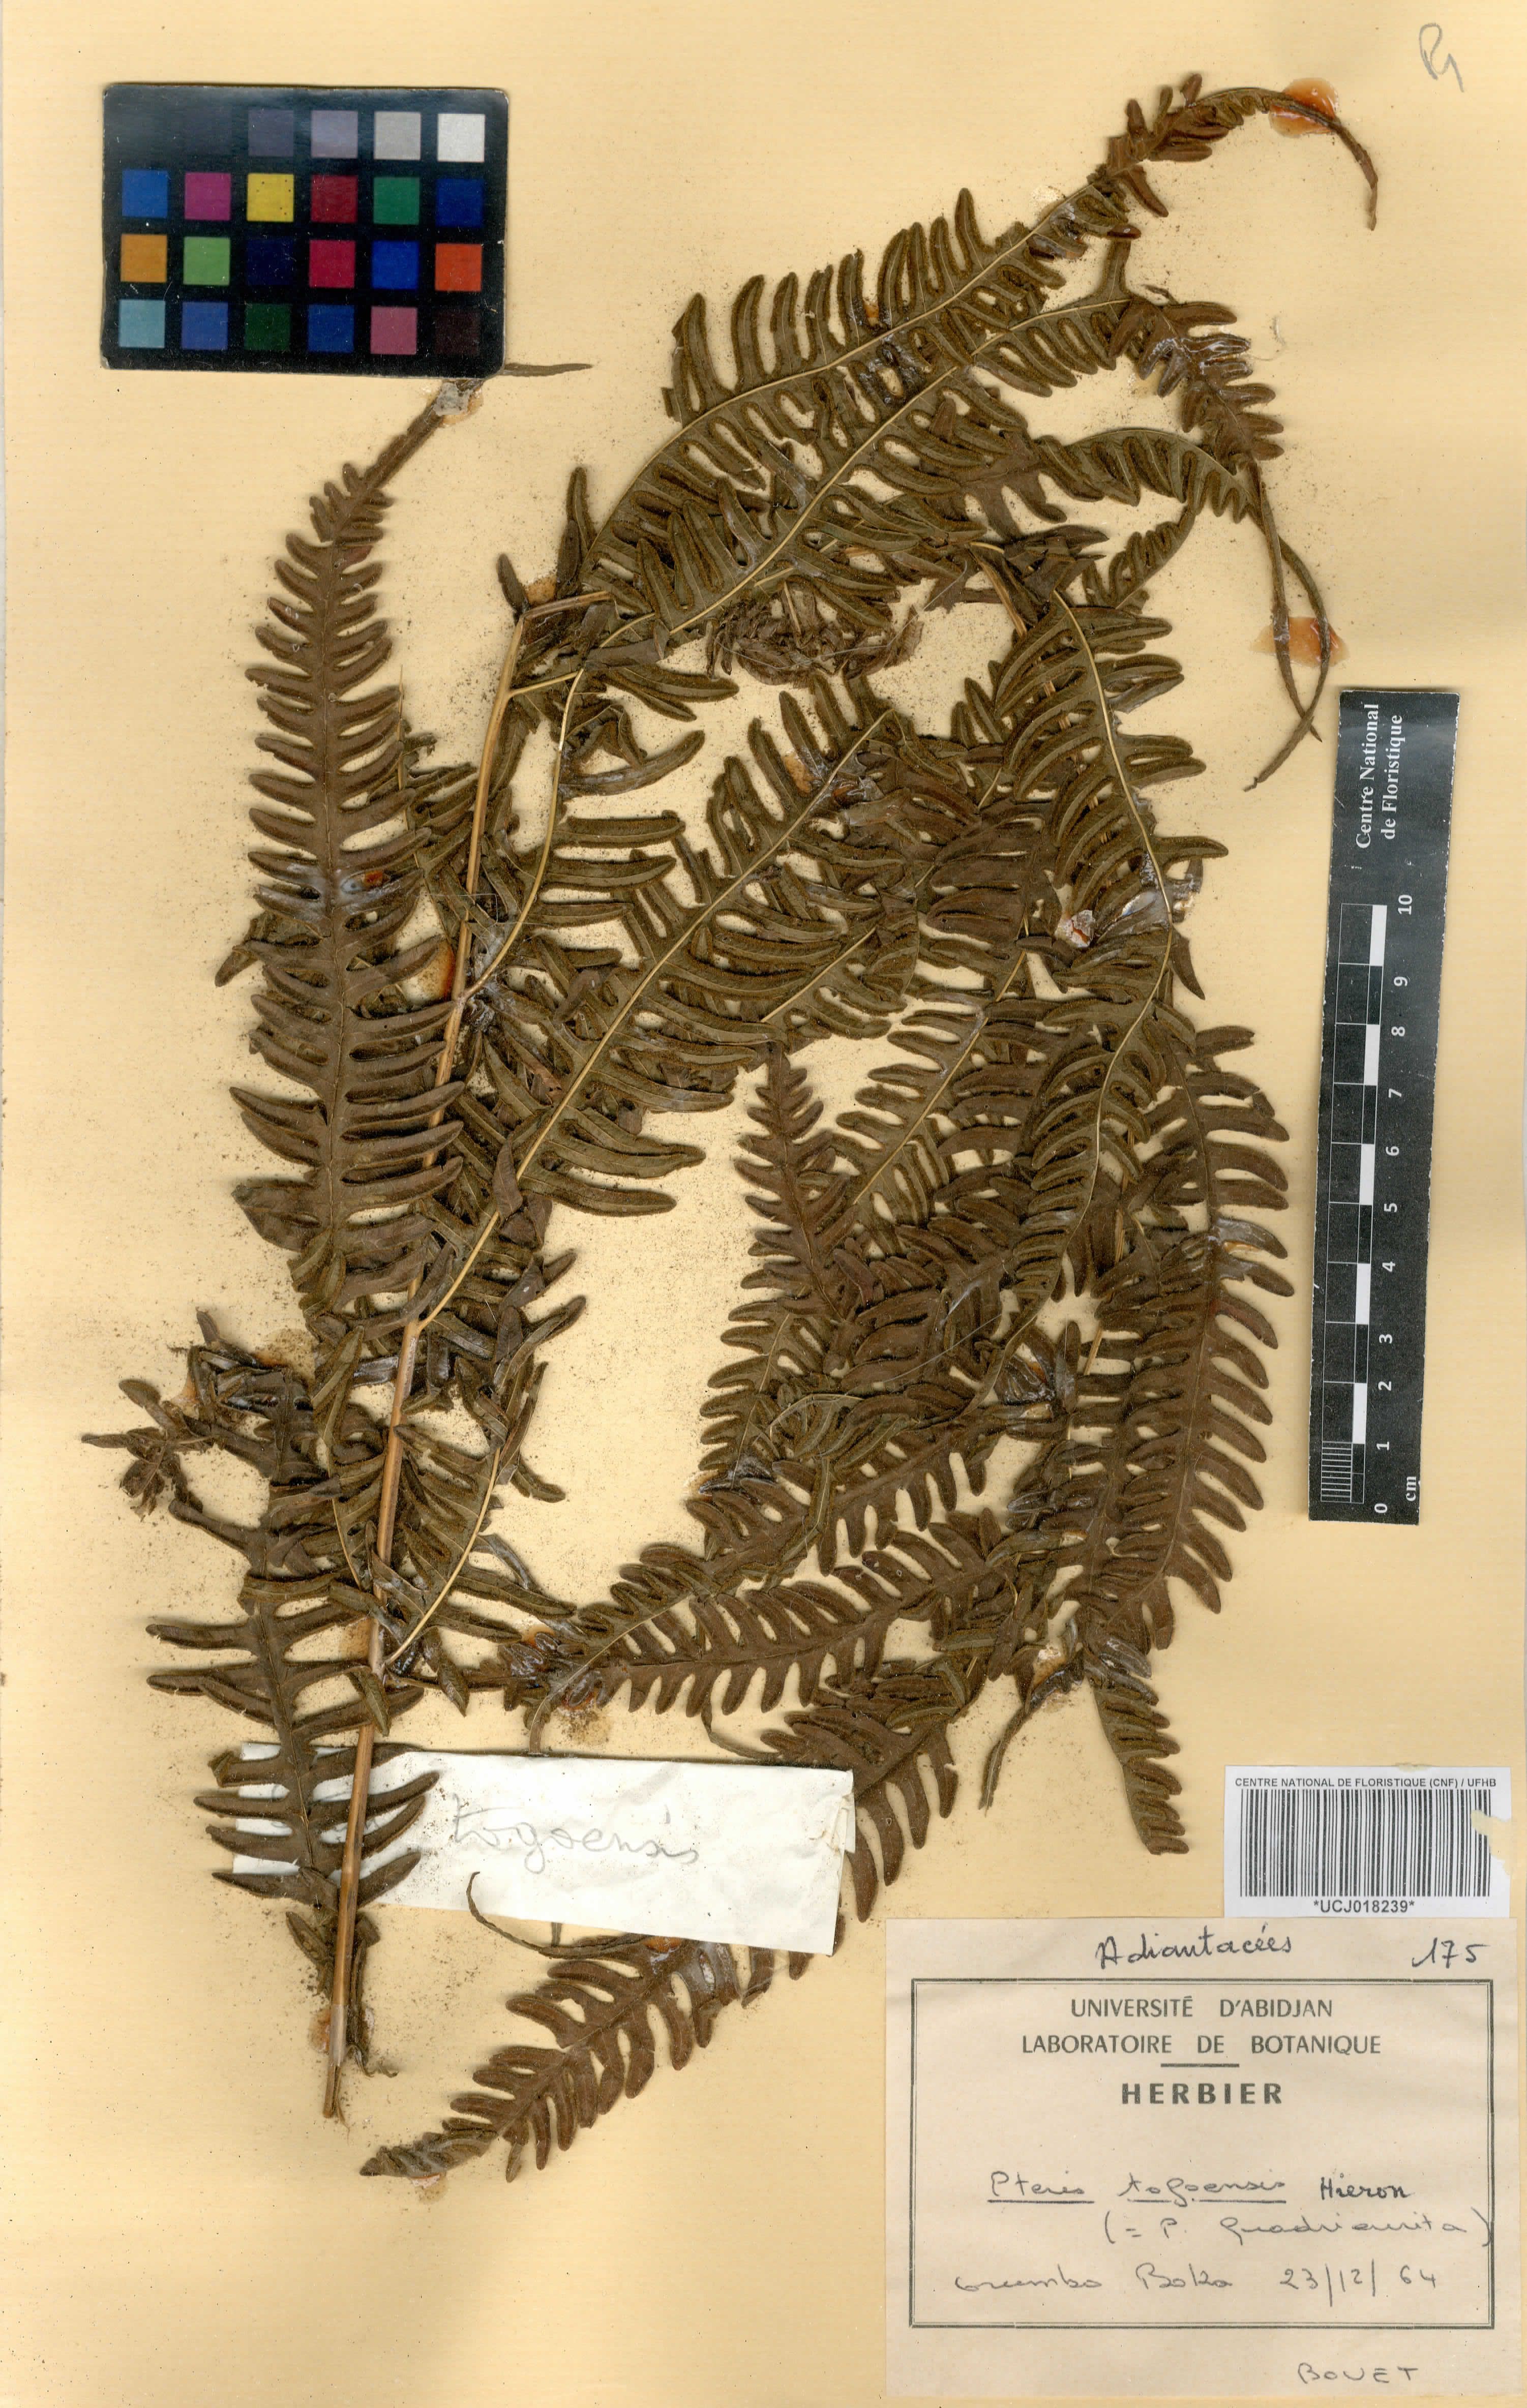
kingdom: Plantae
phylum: Tracheophyta
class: Polypodiopsida
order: Polypodiales
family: Pteridaceae
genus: Pteris
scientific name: Pteris togoensis
